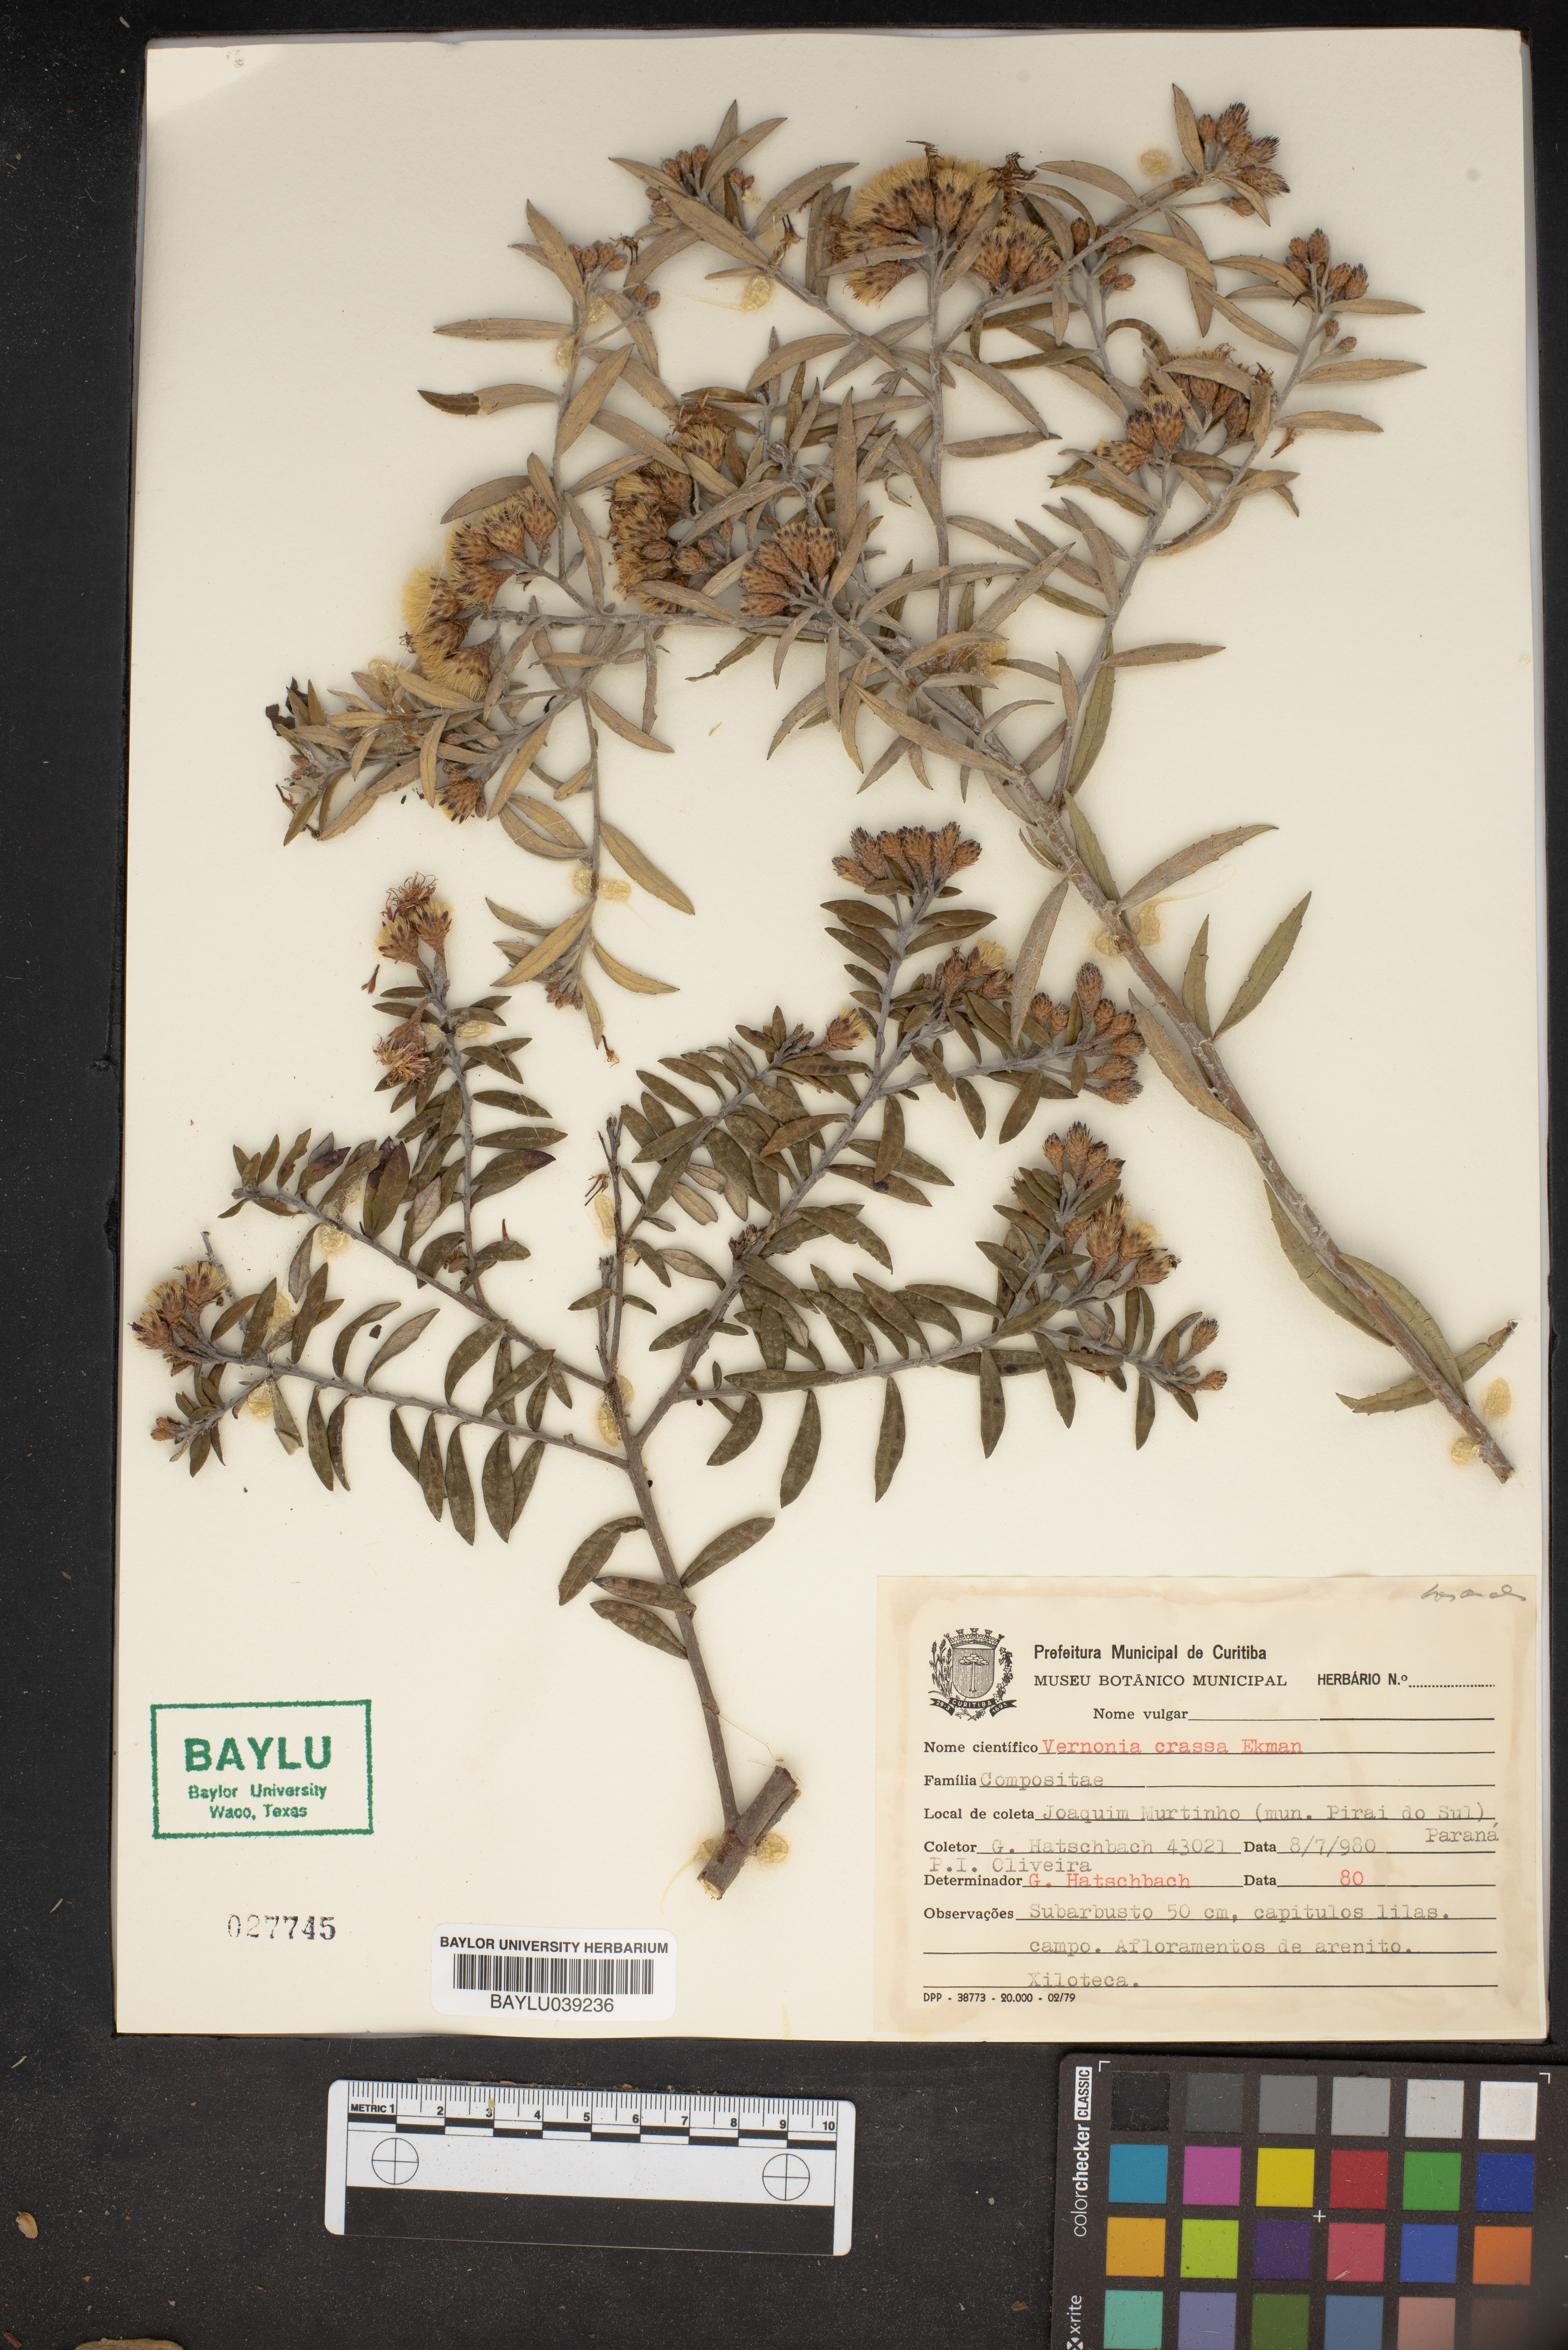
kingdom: Plantae
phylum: Tracheophyta
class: Magnoliopsida
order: Asterales
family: Asteraceae
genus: Vernonanthura
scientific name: Vernonanthura crassa
